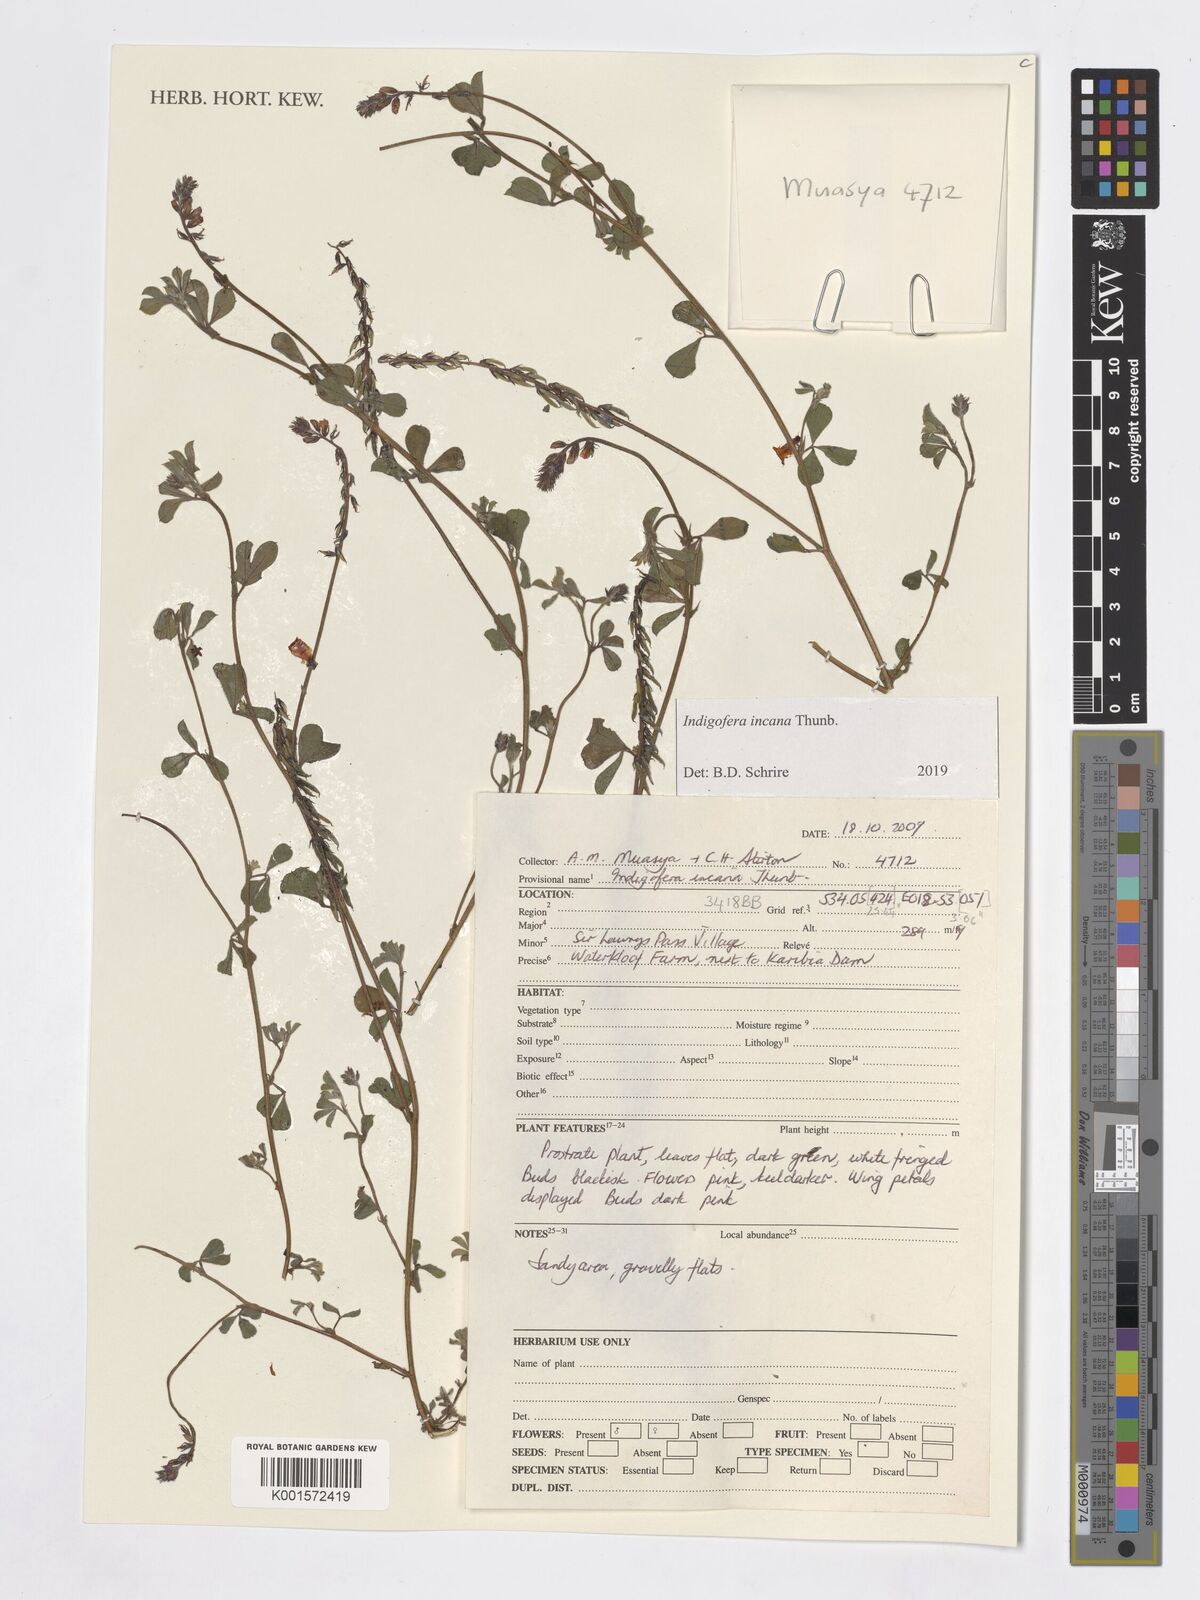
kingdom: Plantae
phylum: Tracheophyta
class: Magnoliopsida
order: Fabales
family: Fabaceae
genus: Indigofera
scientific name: Indigofera incana
